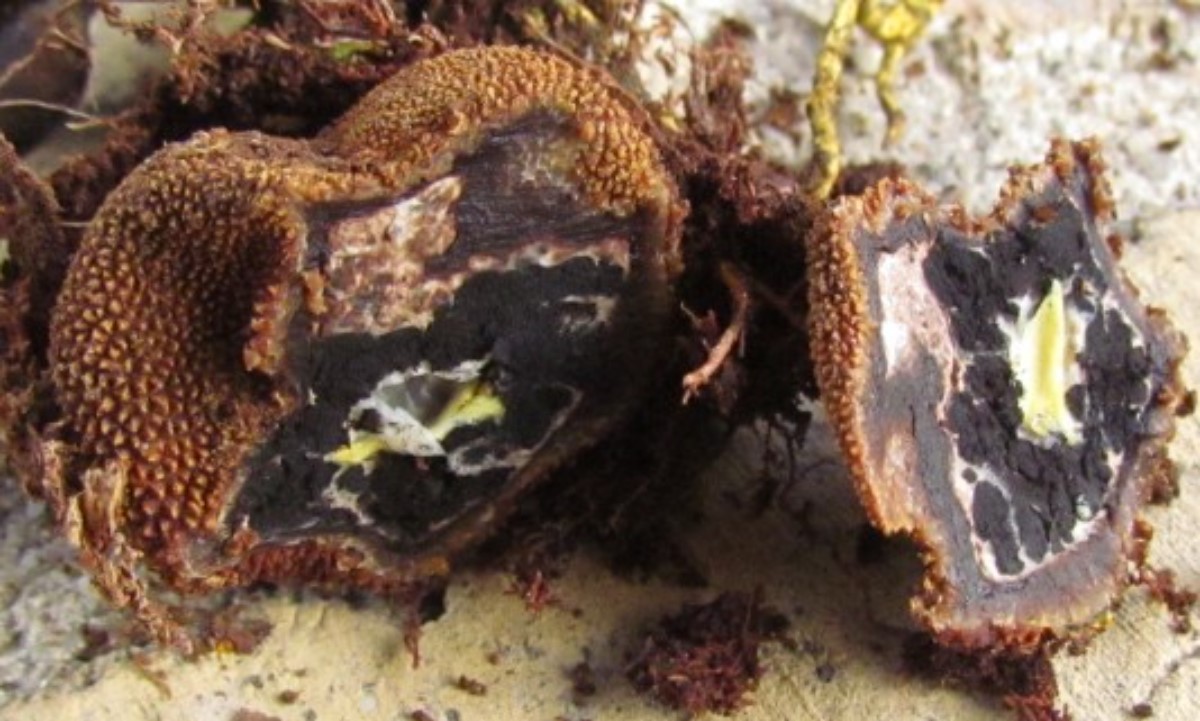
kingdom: Fungi
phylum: Ascomycota
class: Eurotiomycetes
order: Eurotiales
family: Elaphomycetaceae
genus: Elaphomyces
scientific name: Elaphomyces muricatus
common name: vortet hjortetrøffel
